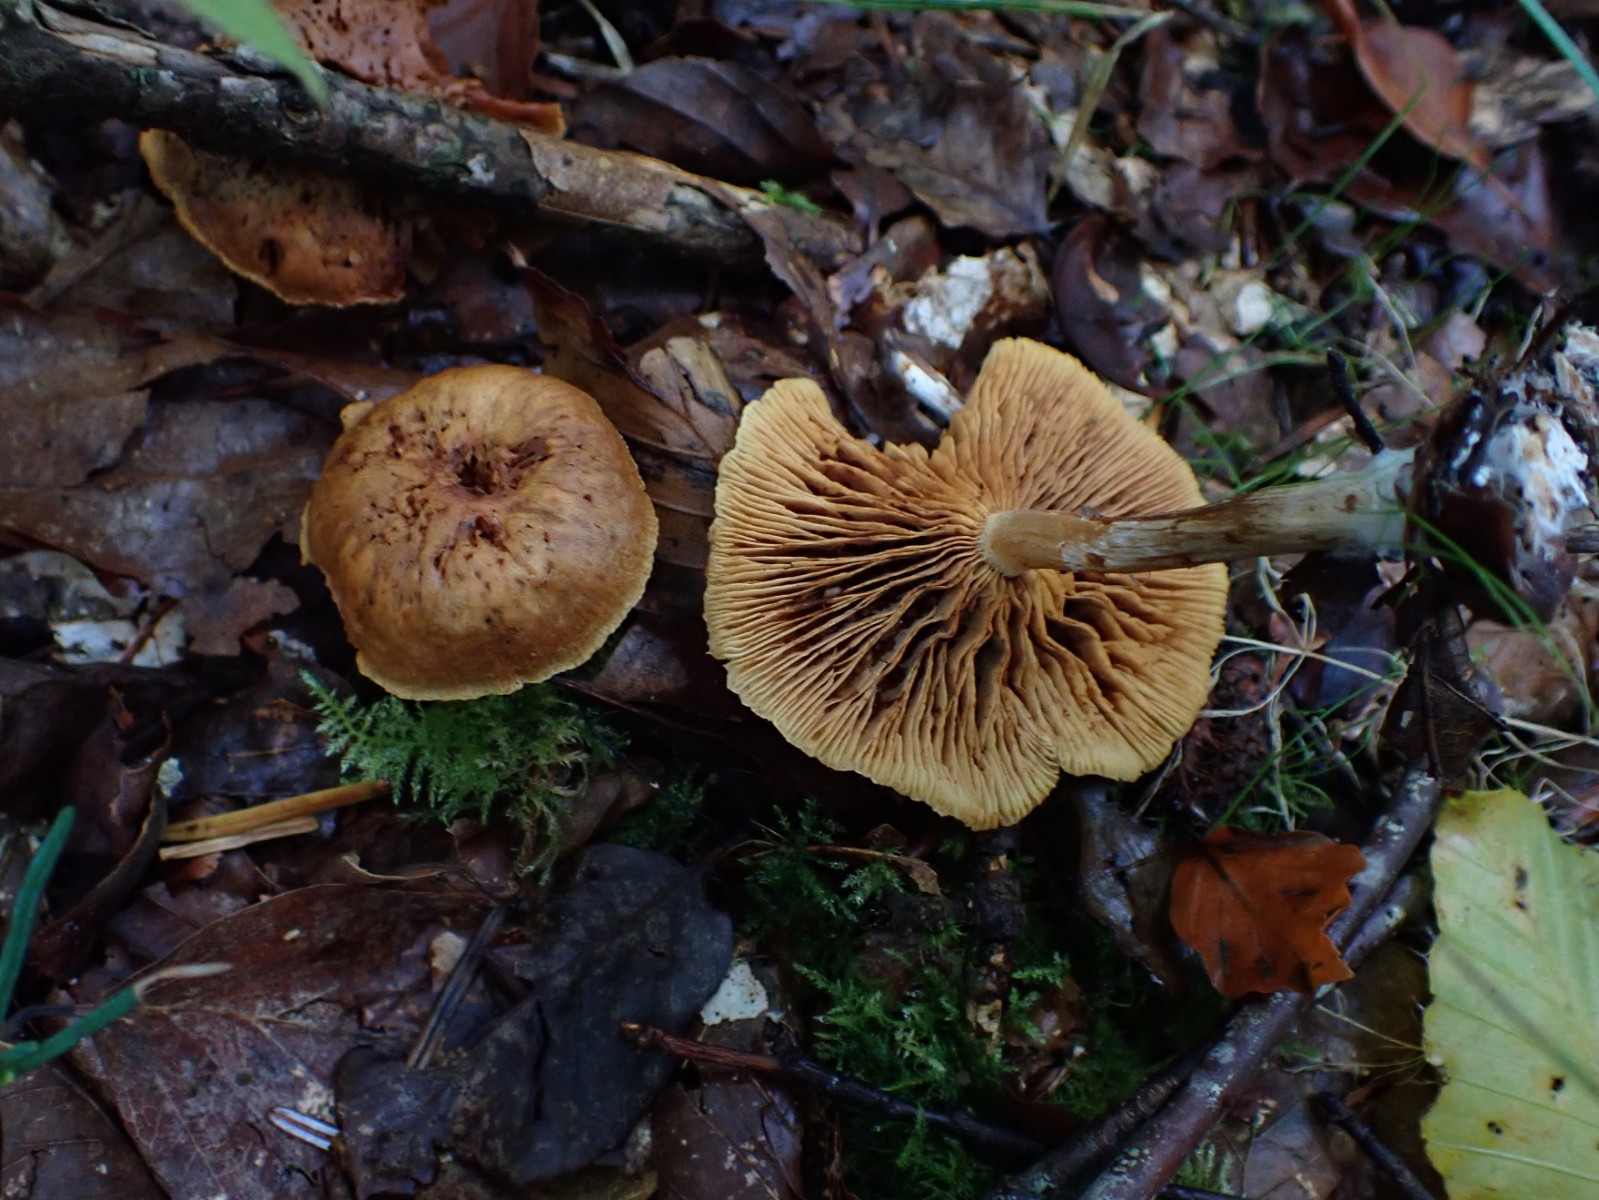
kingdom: Fungi
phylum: Basidiomycota
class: Agaricomycetes
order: Agaricales
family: Hymenogastraceae
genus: Gymnopilus
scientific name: Gymnopilus penetrans
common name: plettet flammehat
